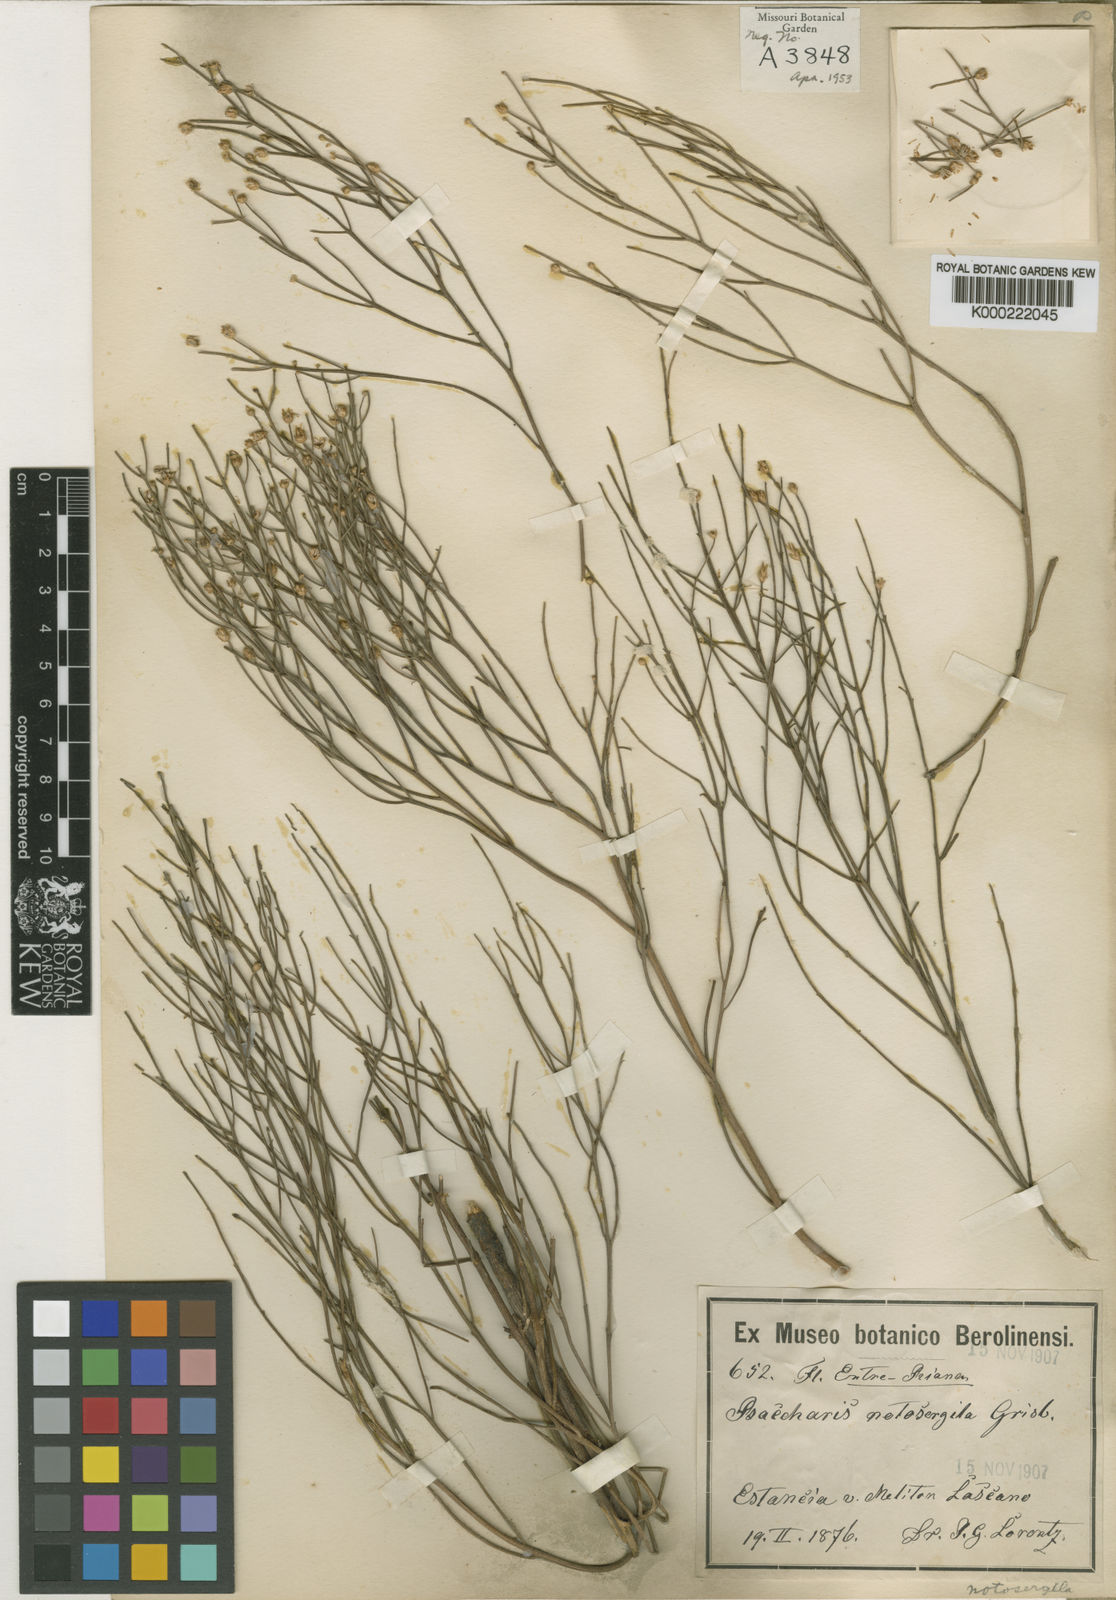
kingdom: Plantae
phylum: Tracheophyta
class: Magnoliopsida
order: Asterales
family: Asteraceae
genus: Baccharis
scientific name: Baccharis notosergila
